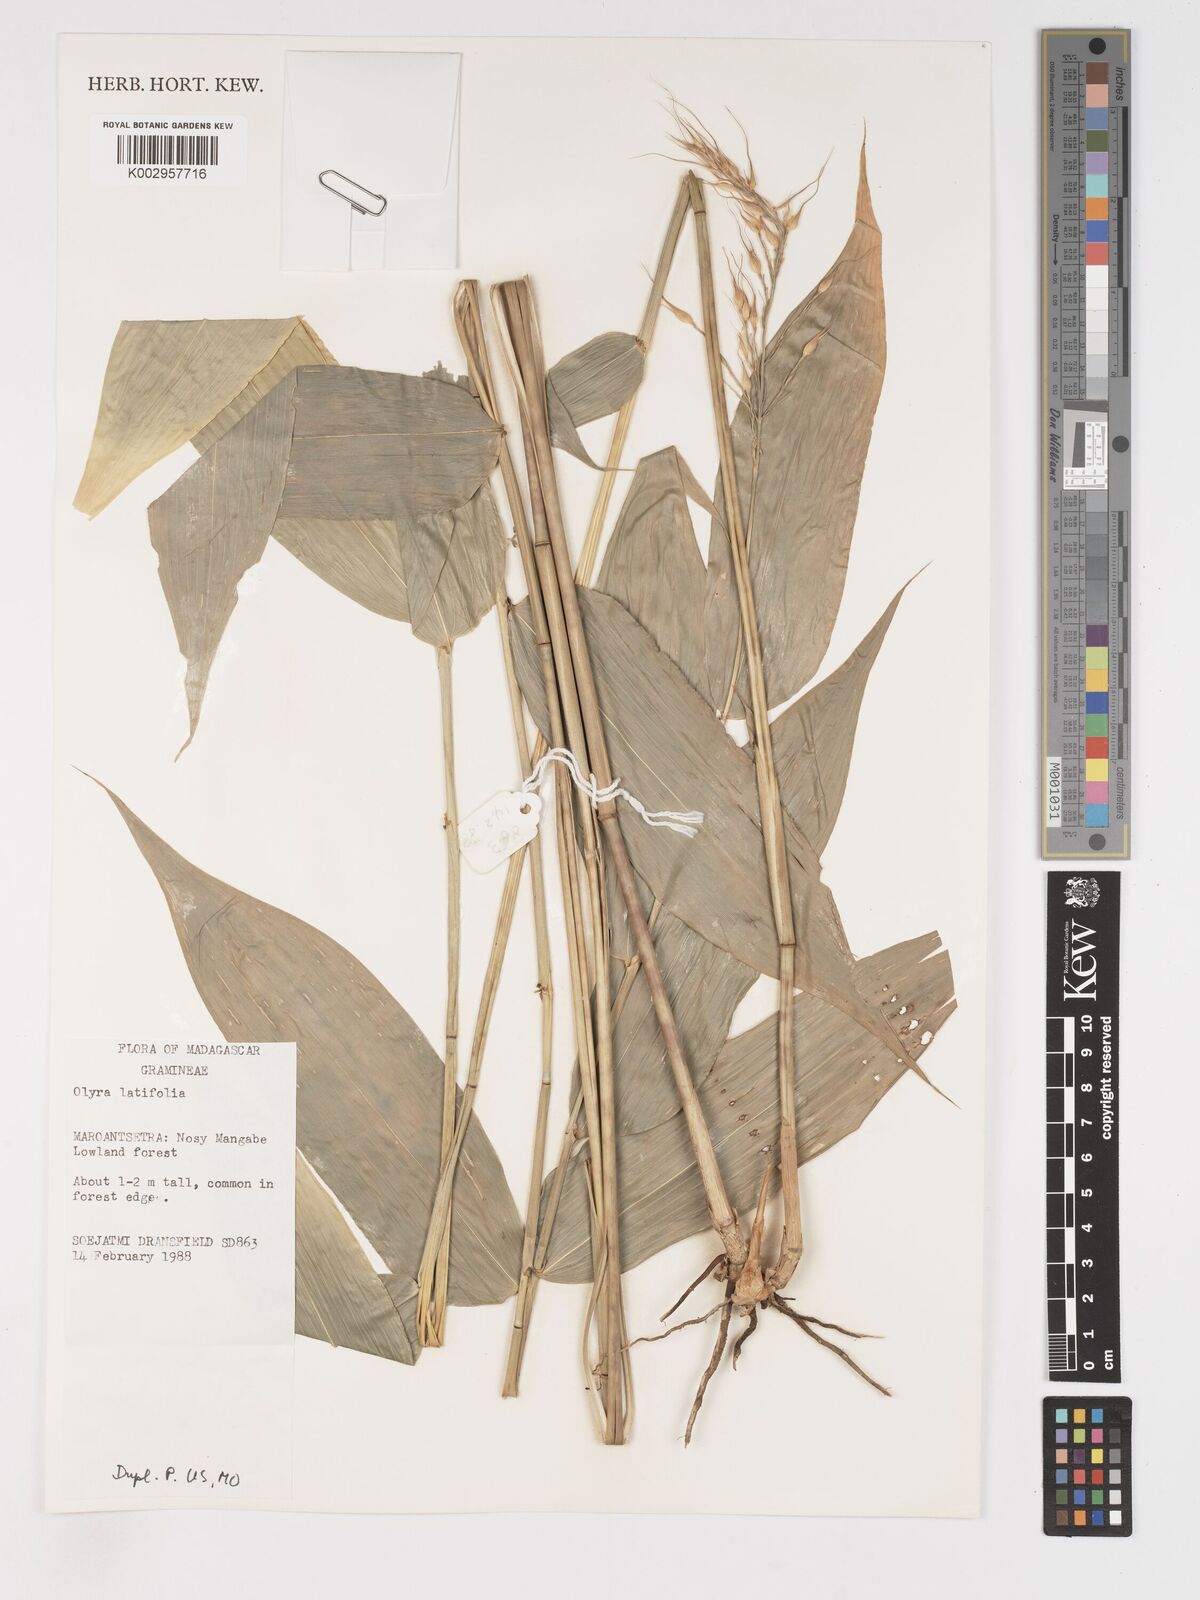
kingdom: Plantae
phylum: Tracheophyta
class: Liliopsida
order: Poales
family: Poaceae
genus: Olyra
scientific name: Olyra latifolia
